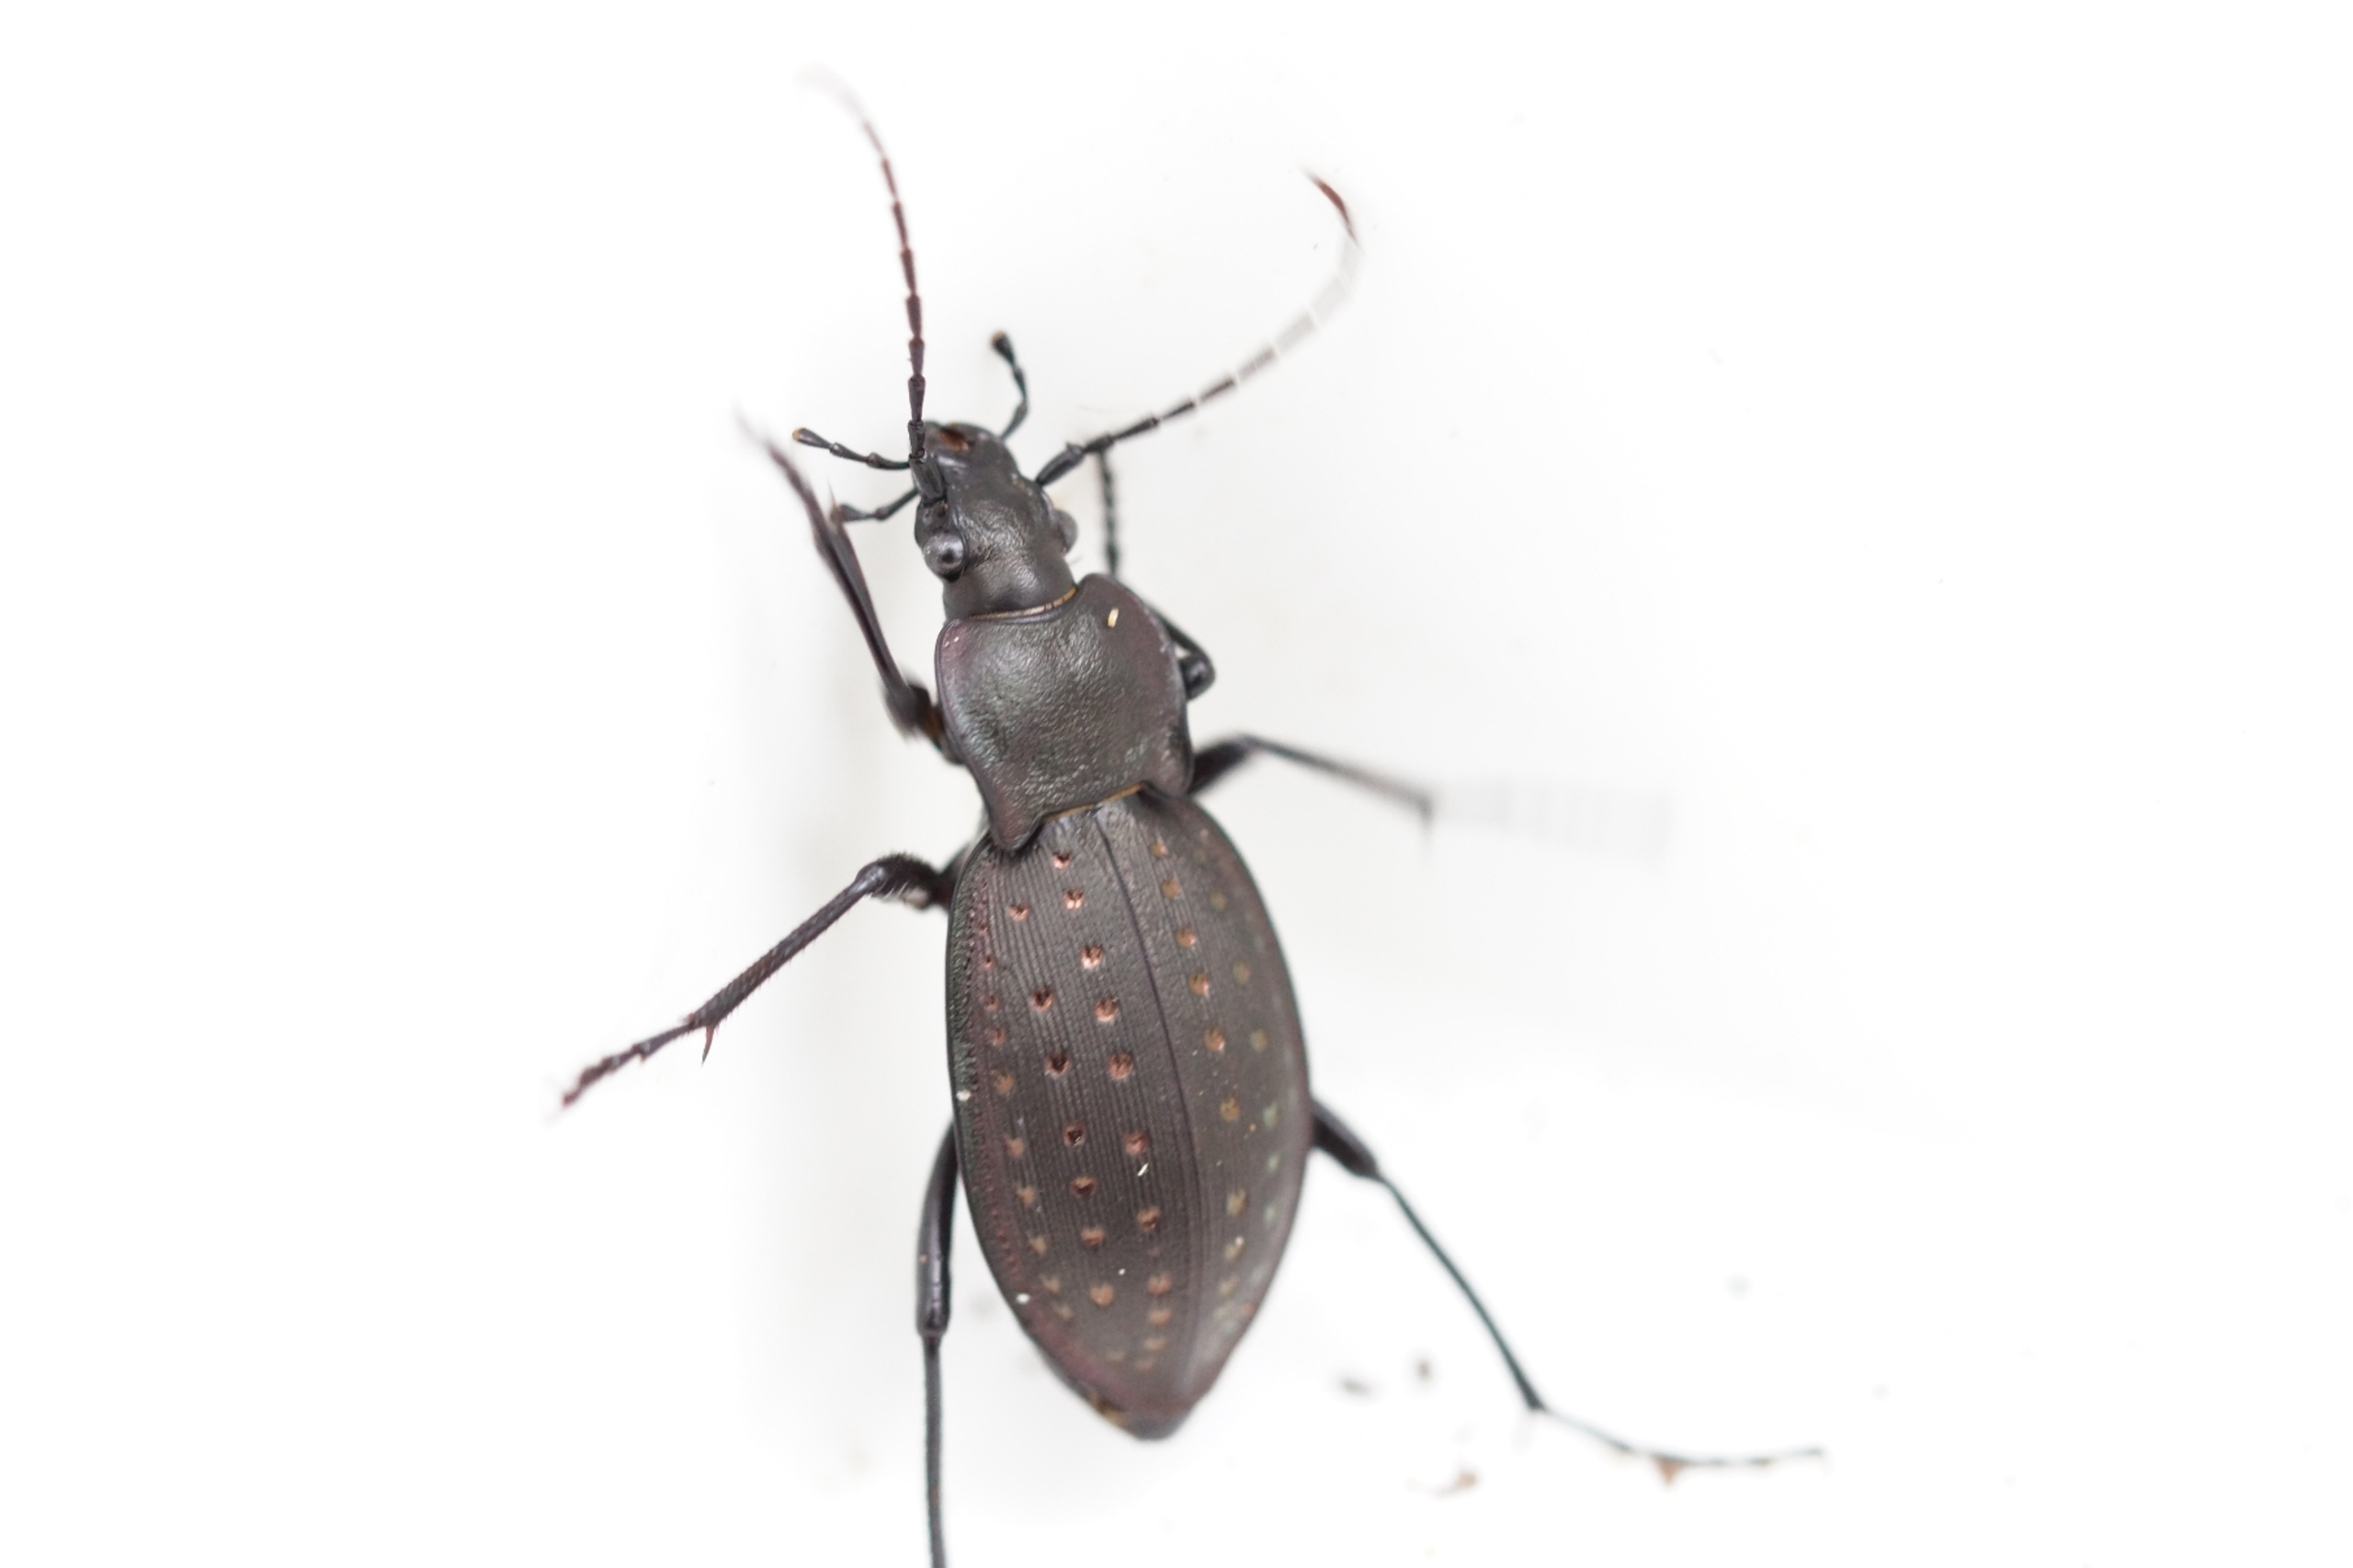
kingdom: Animalia
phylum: Arthropoda
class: Insecta
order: Coleoptera
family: Carabidae
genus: Carabus
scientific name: Carabus hortensis
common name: Guldpletløber
